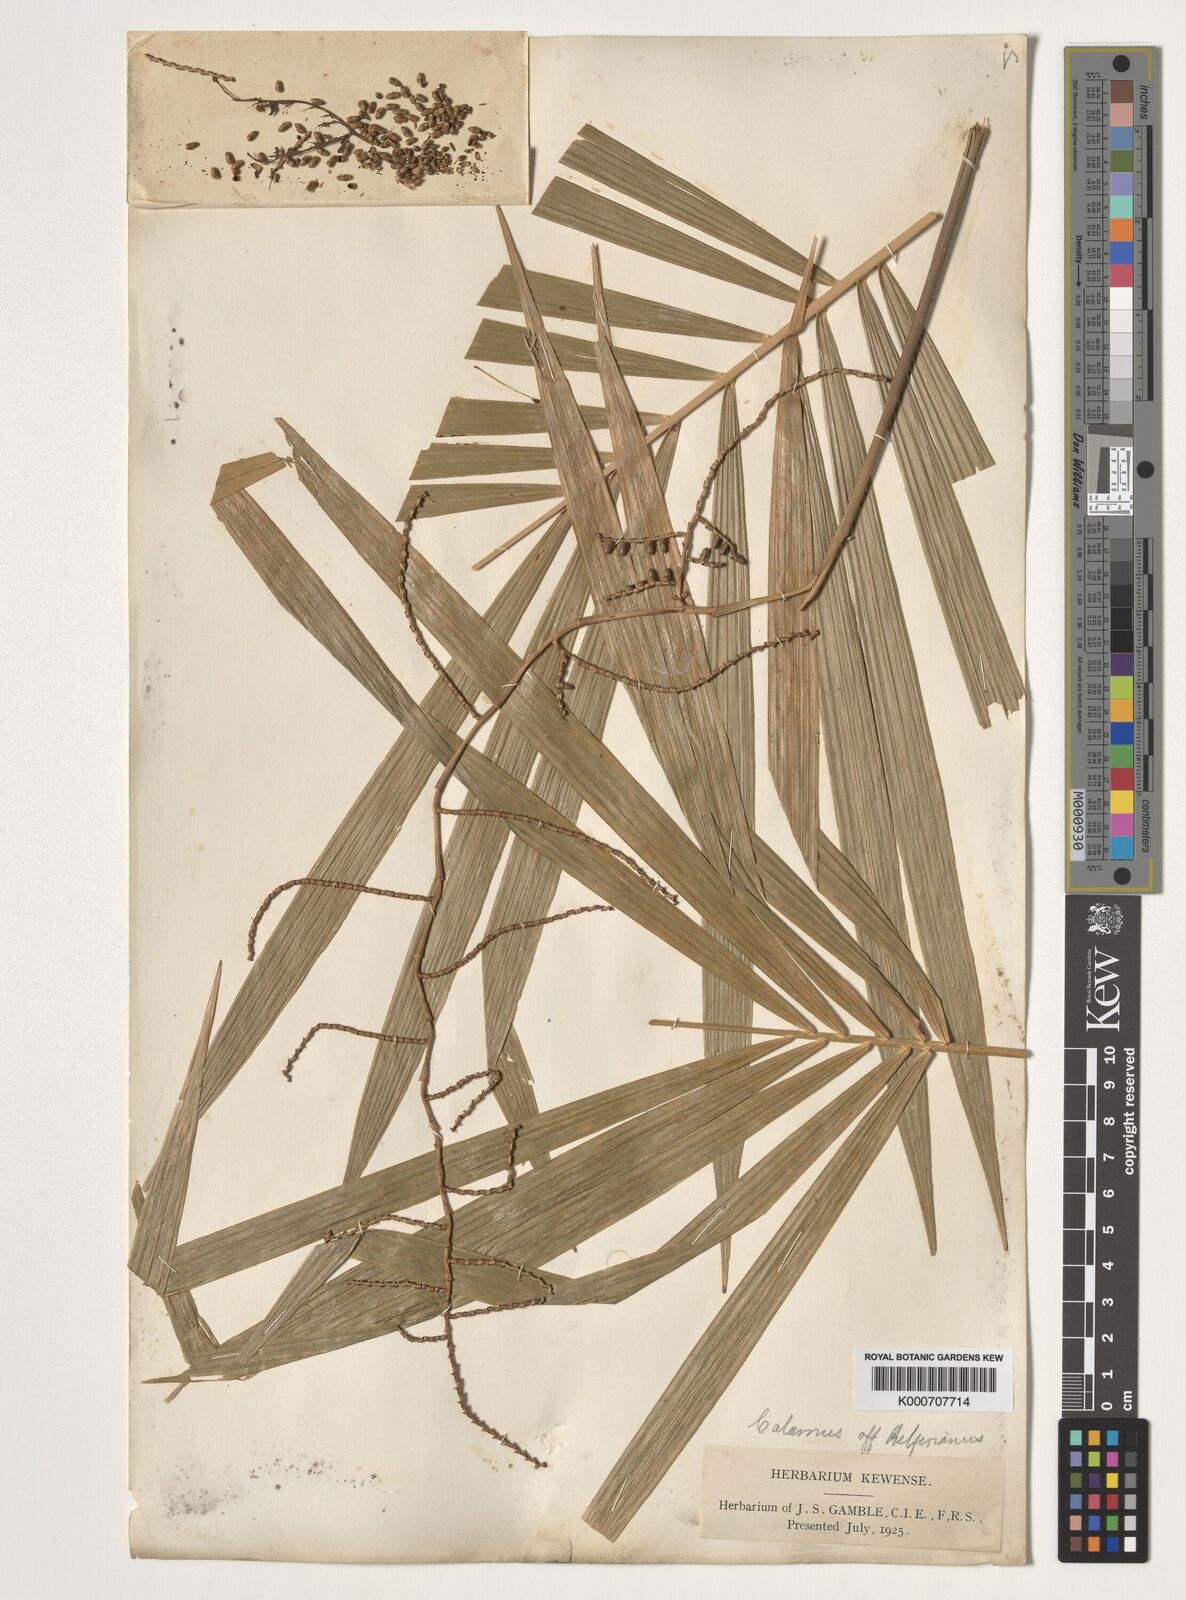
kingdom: Plantae
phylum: Tracheophyta
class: Liliopsida
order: Arecales
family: Arecaceae
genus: Calamus
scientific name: Calamus helferianus
